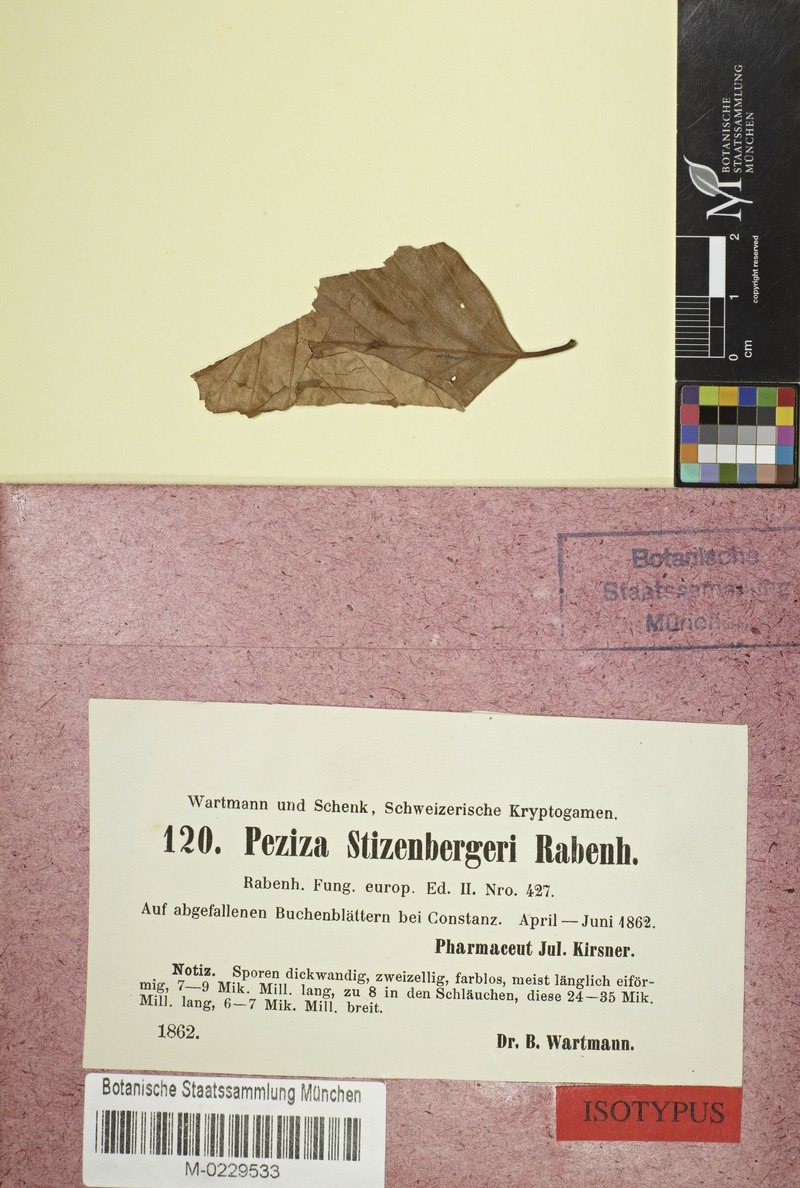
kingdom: Fungi
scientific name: Fungi
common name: Fungi
